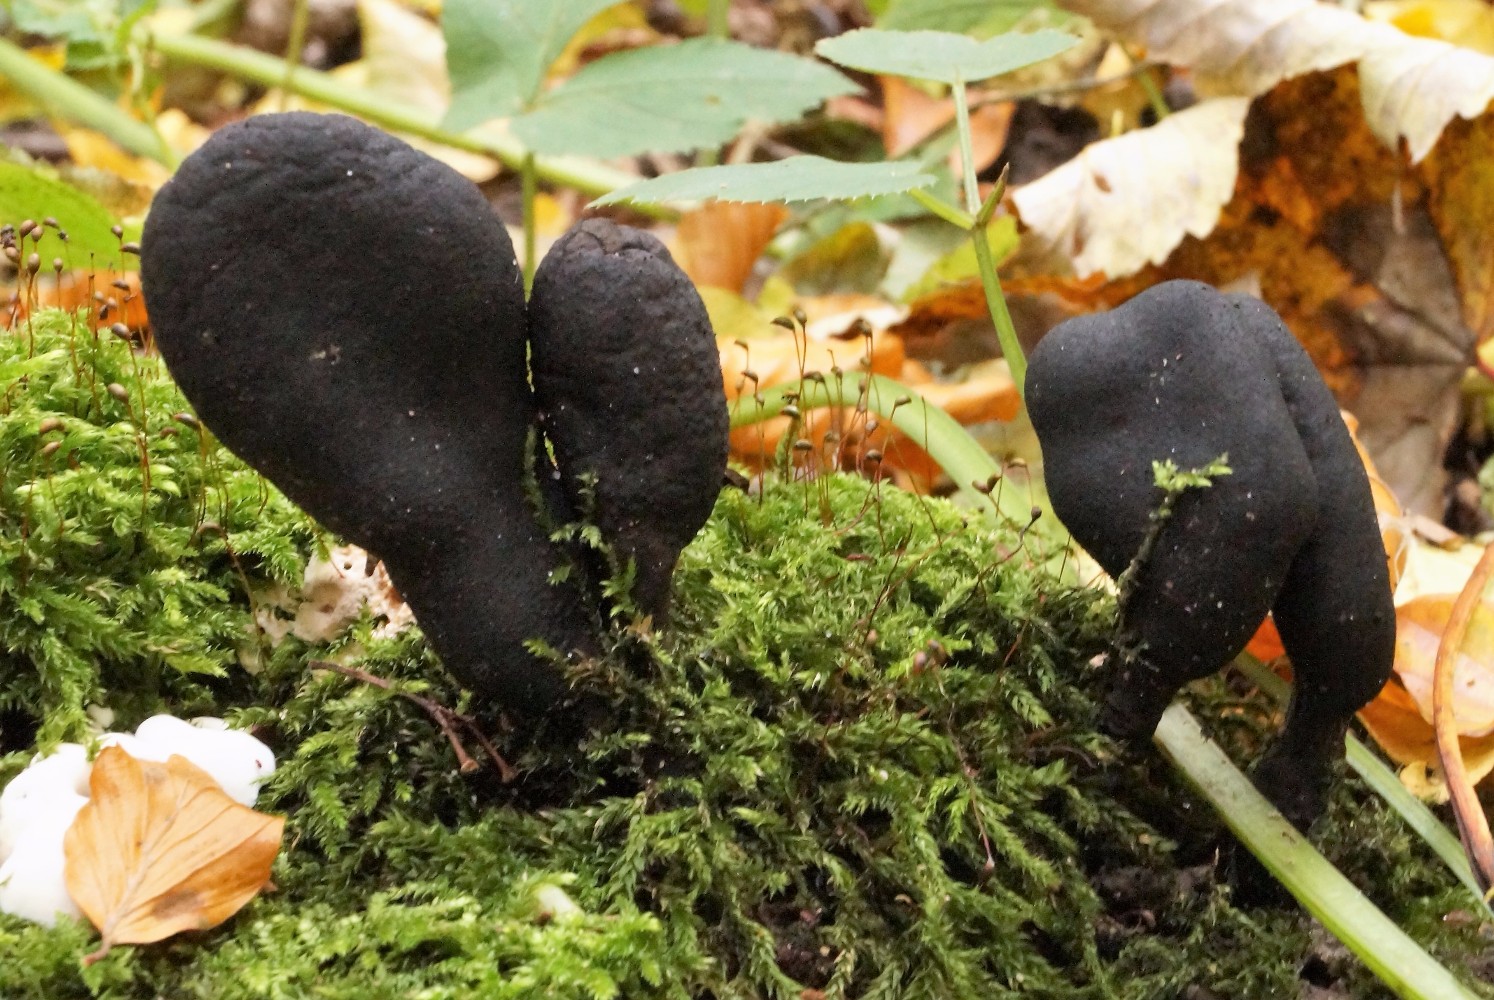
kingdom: Fungi
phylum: Ascomycota
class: Sordariomycetes
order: Xylariales
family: Xylariaceae
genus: Xylaria
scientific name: Xylaria polymorpha
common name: kølle-stødsvamp
